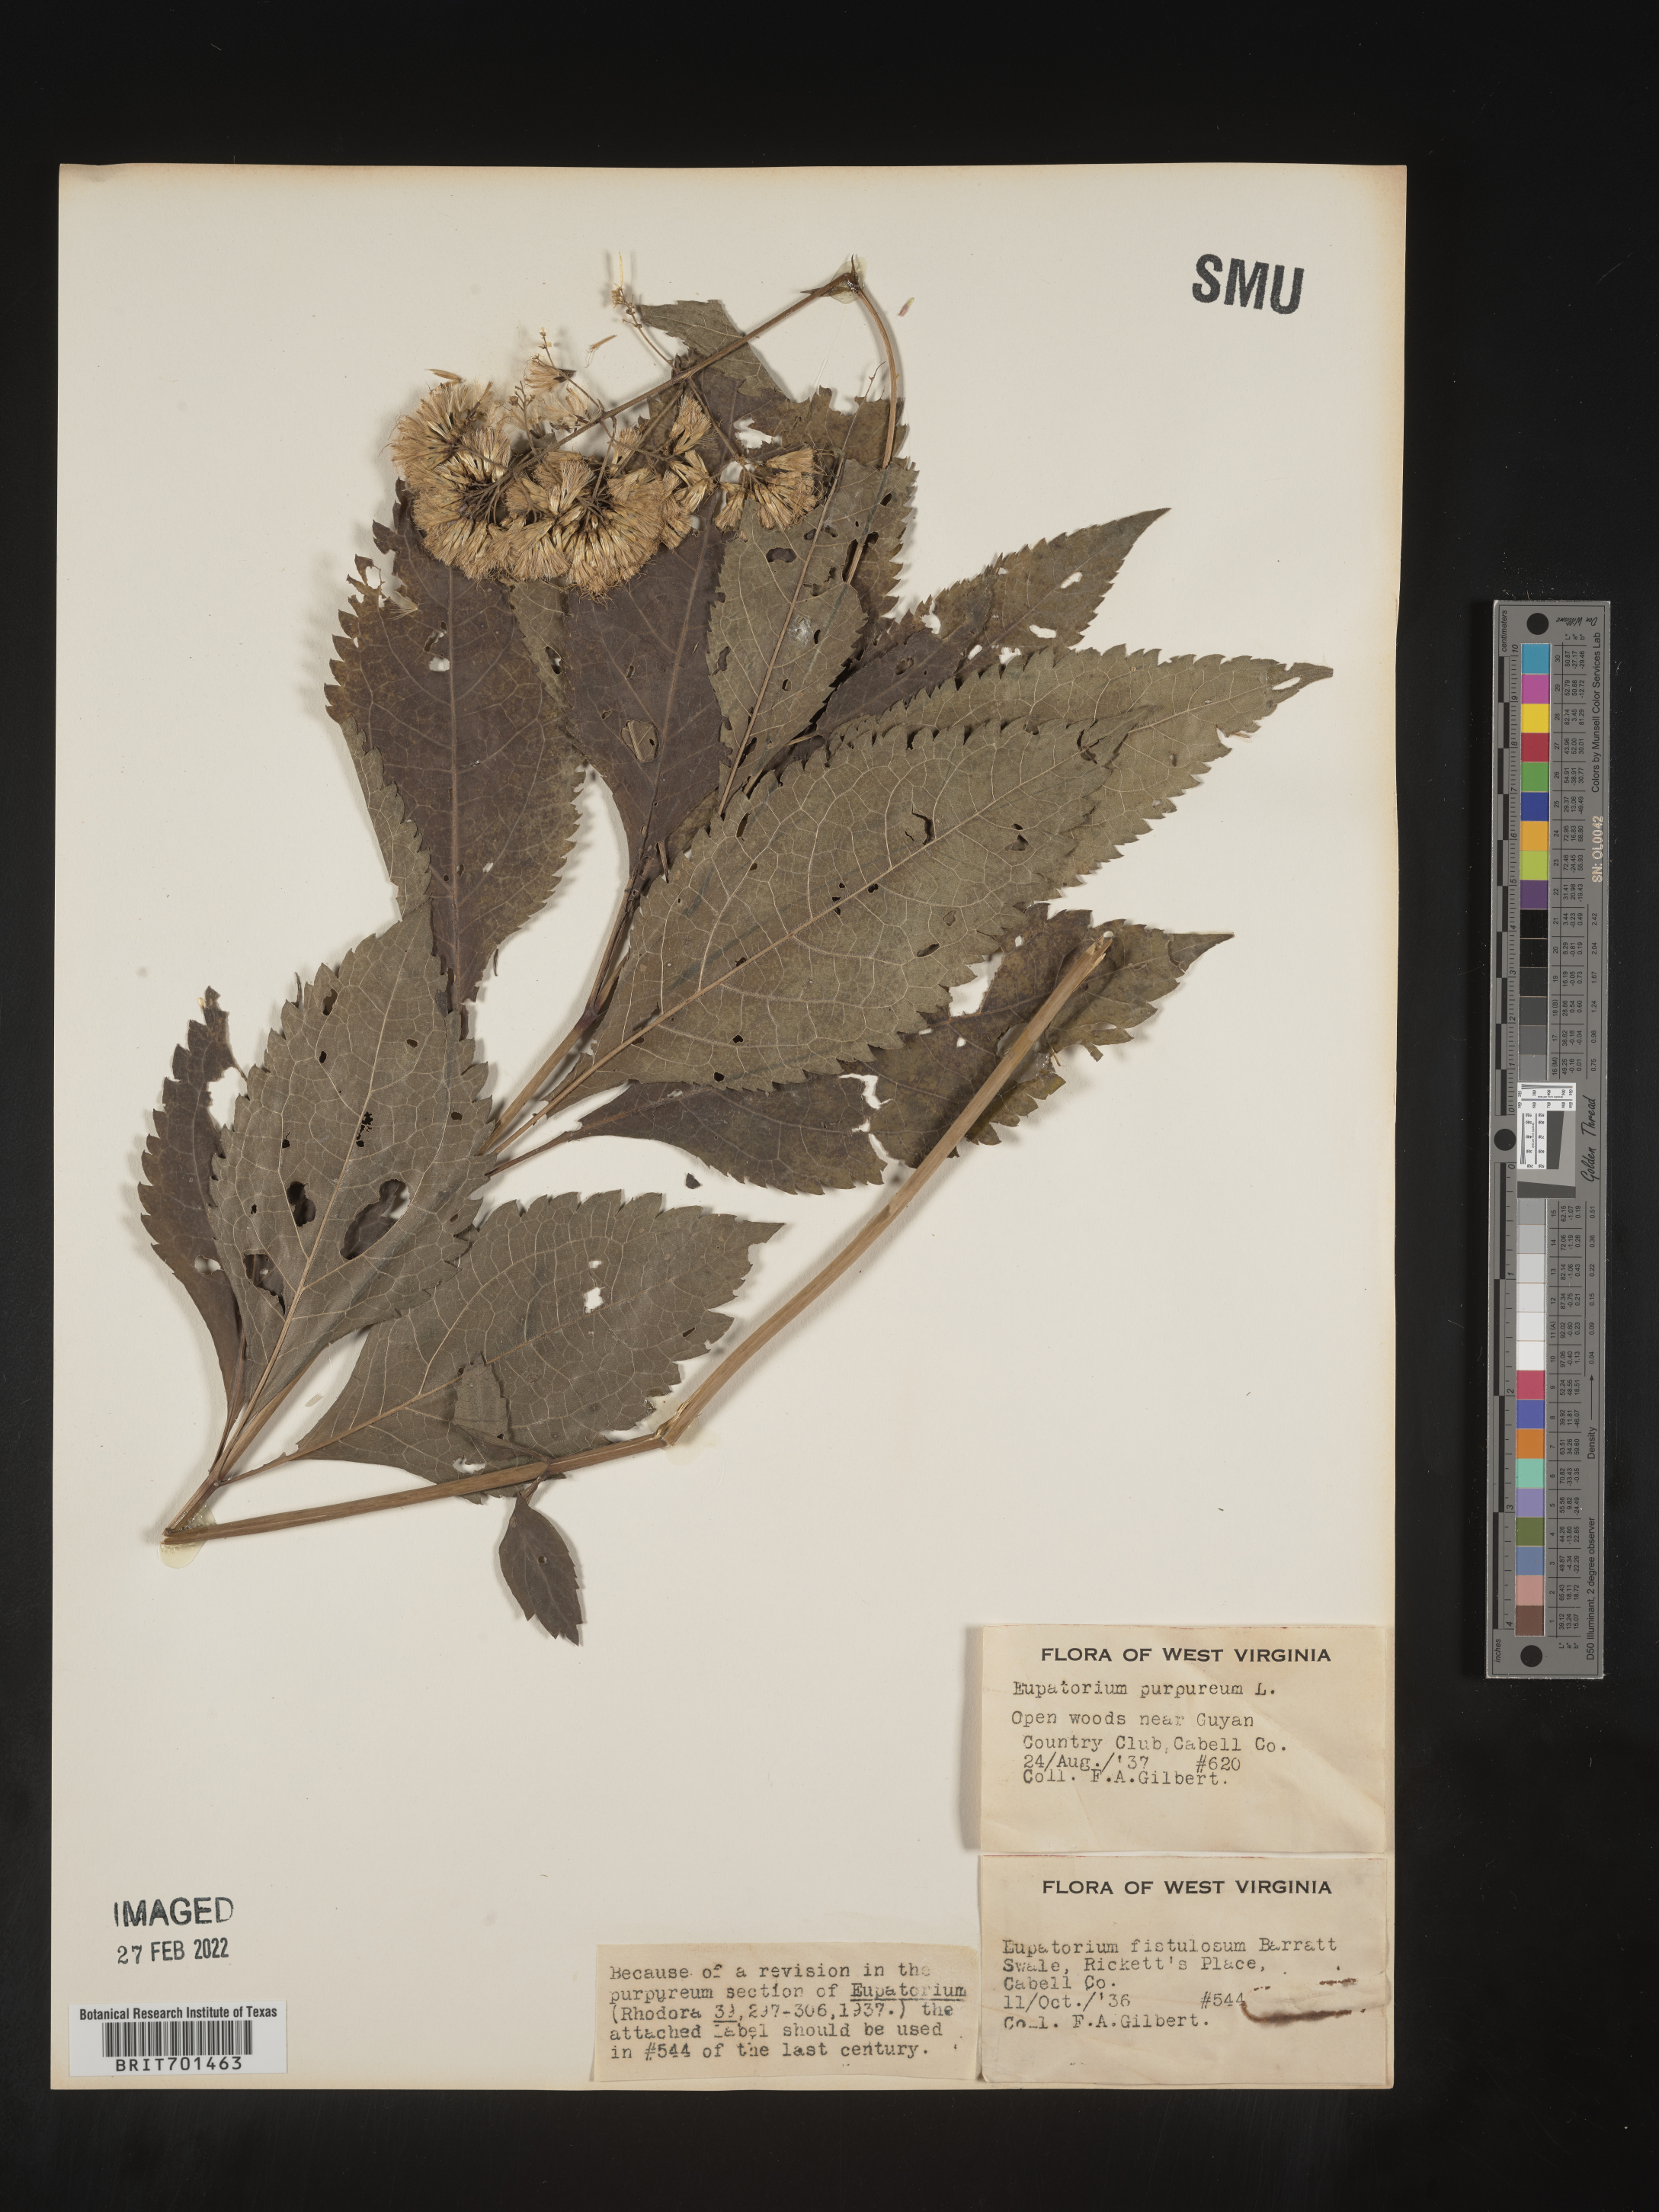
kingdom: Plantae
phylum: Tracheophyta
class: Magnoliopsida
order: Asterales
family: Asteraceae
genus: Eutrochium
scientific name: Eutrochium fistulosum
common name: Trumpetweed
